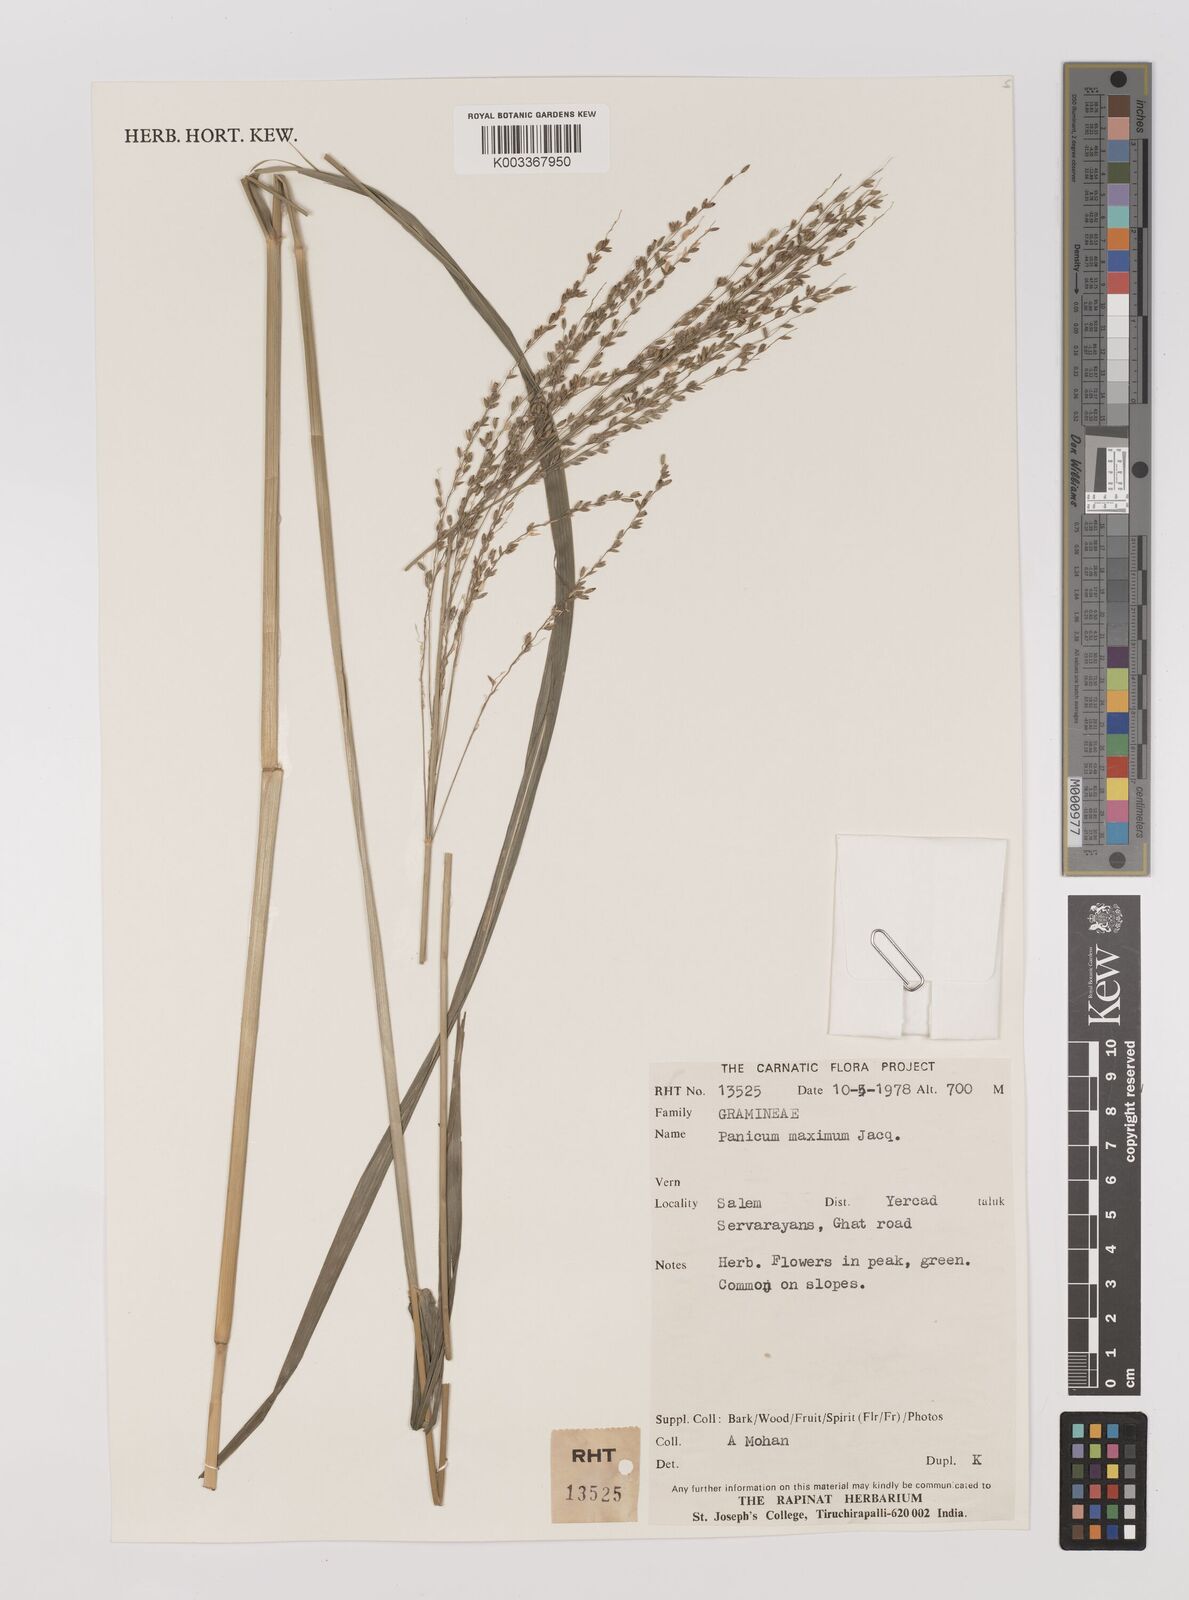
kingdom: Plantae
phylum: Tracheophyta
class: Liliopsida
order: Poales
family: Poaceae
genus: Megathyrsus
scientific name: Megathyrsus maximus
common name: Guineagrass
